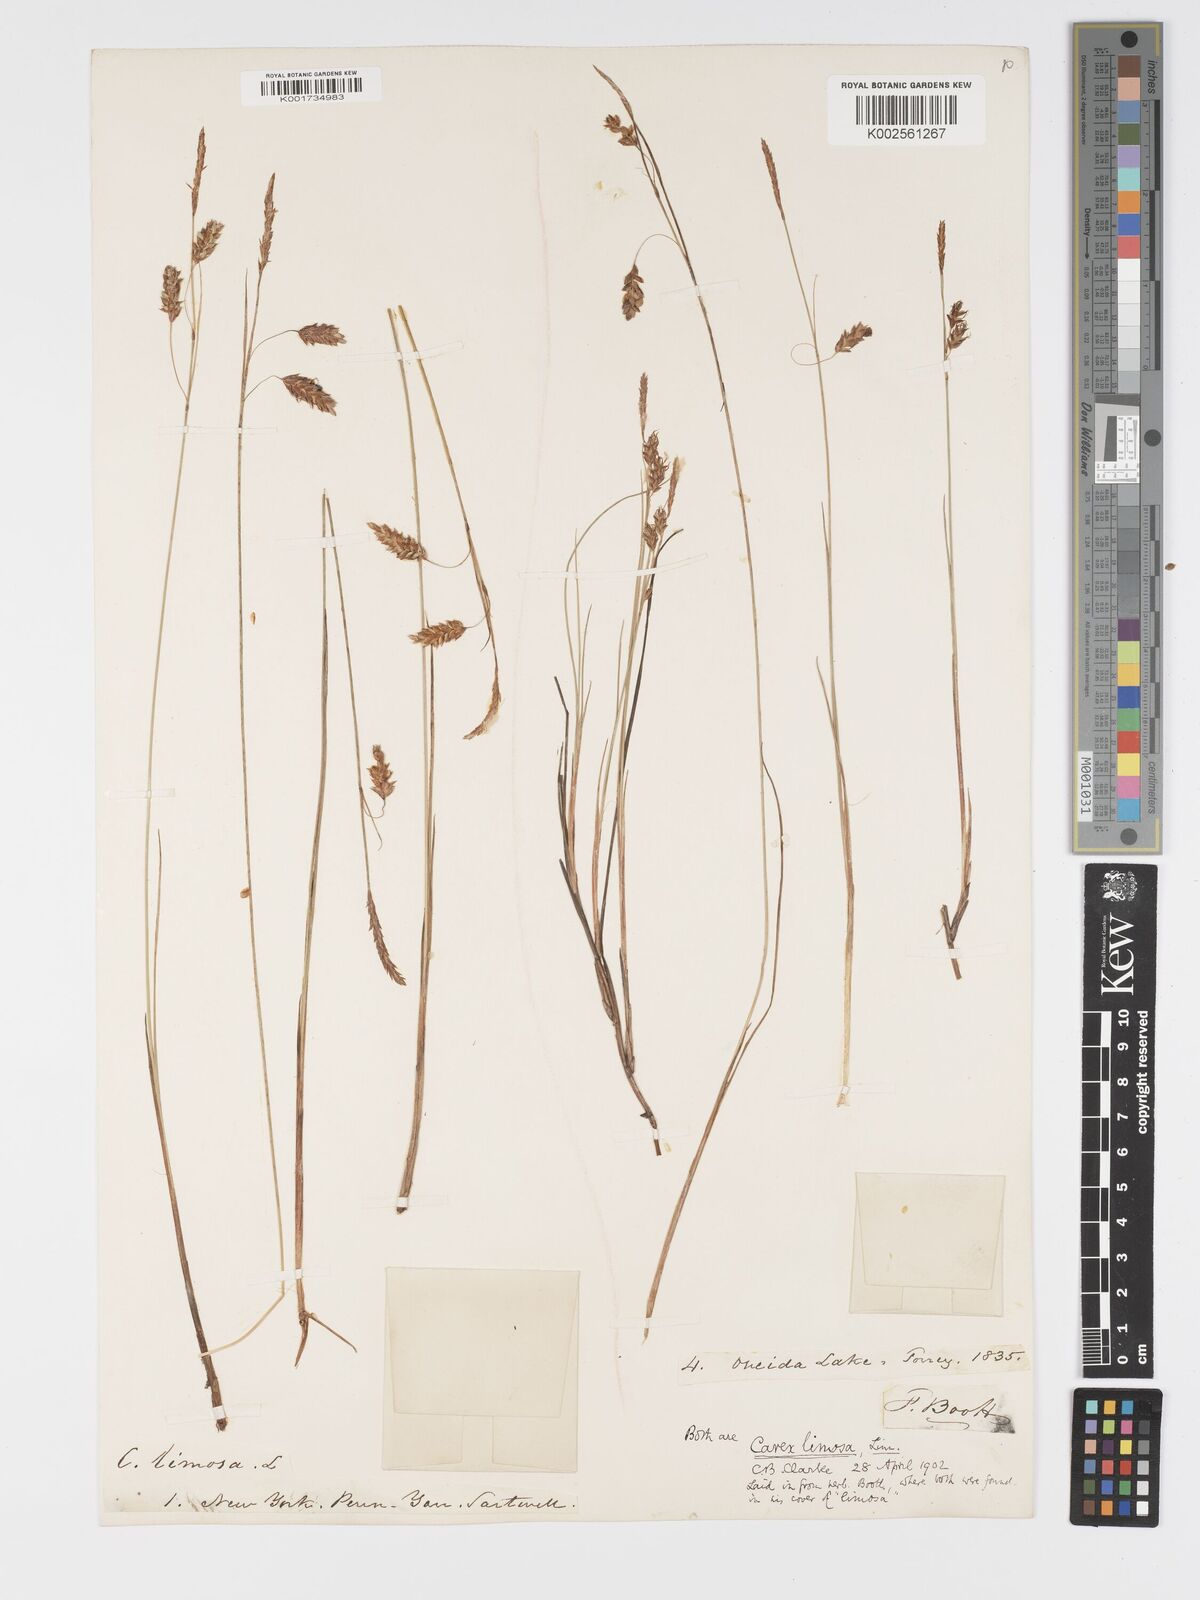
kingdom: Plantae
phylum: Tracheophyta
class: Liliopsida
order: Poales
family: Cyperaceae
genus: Carex
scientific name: Carex limosa
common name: Bog sedge
